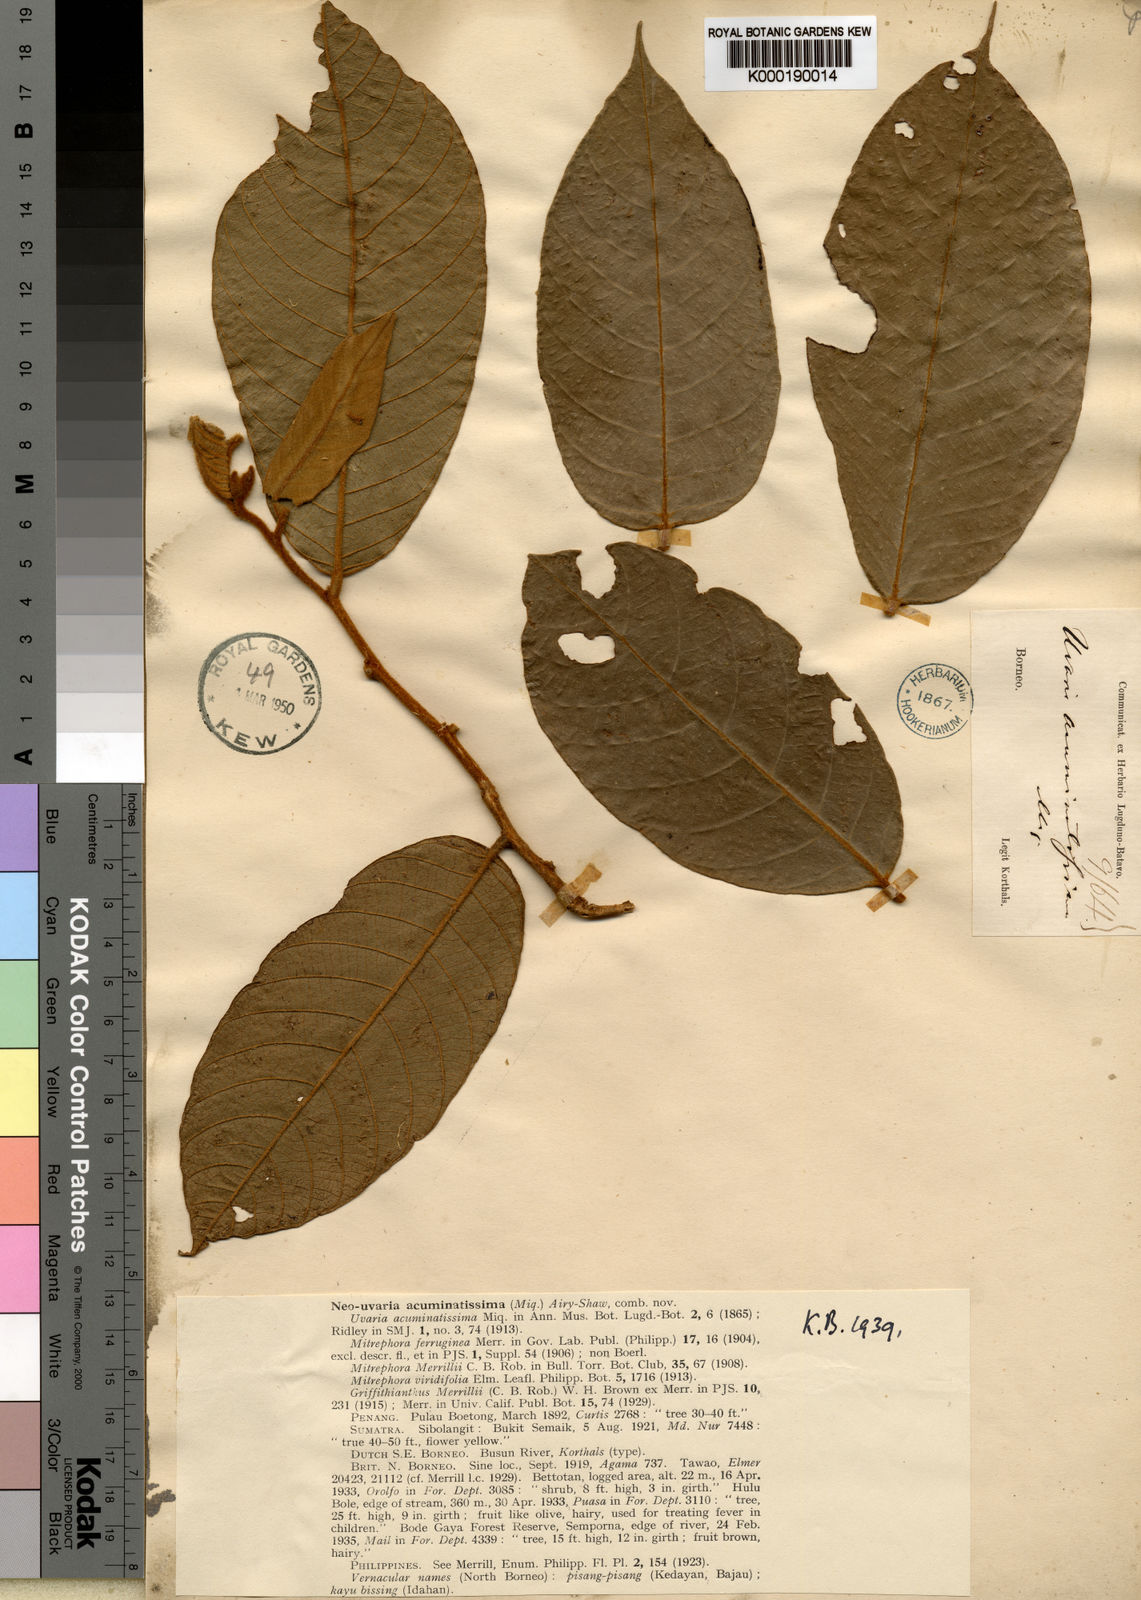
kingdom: Plantae
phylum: Tracheophyta
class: Magnoliopsida
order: Magnoliales
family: Annonaceae
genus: Neouvaria
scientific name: Neouvaria acuminatissima
